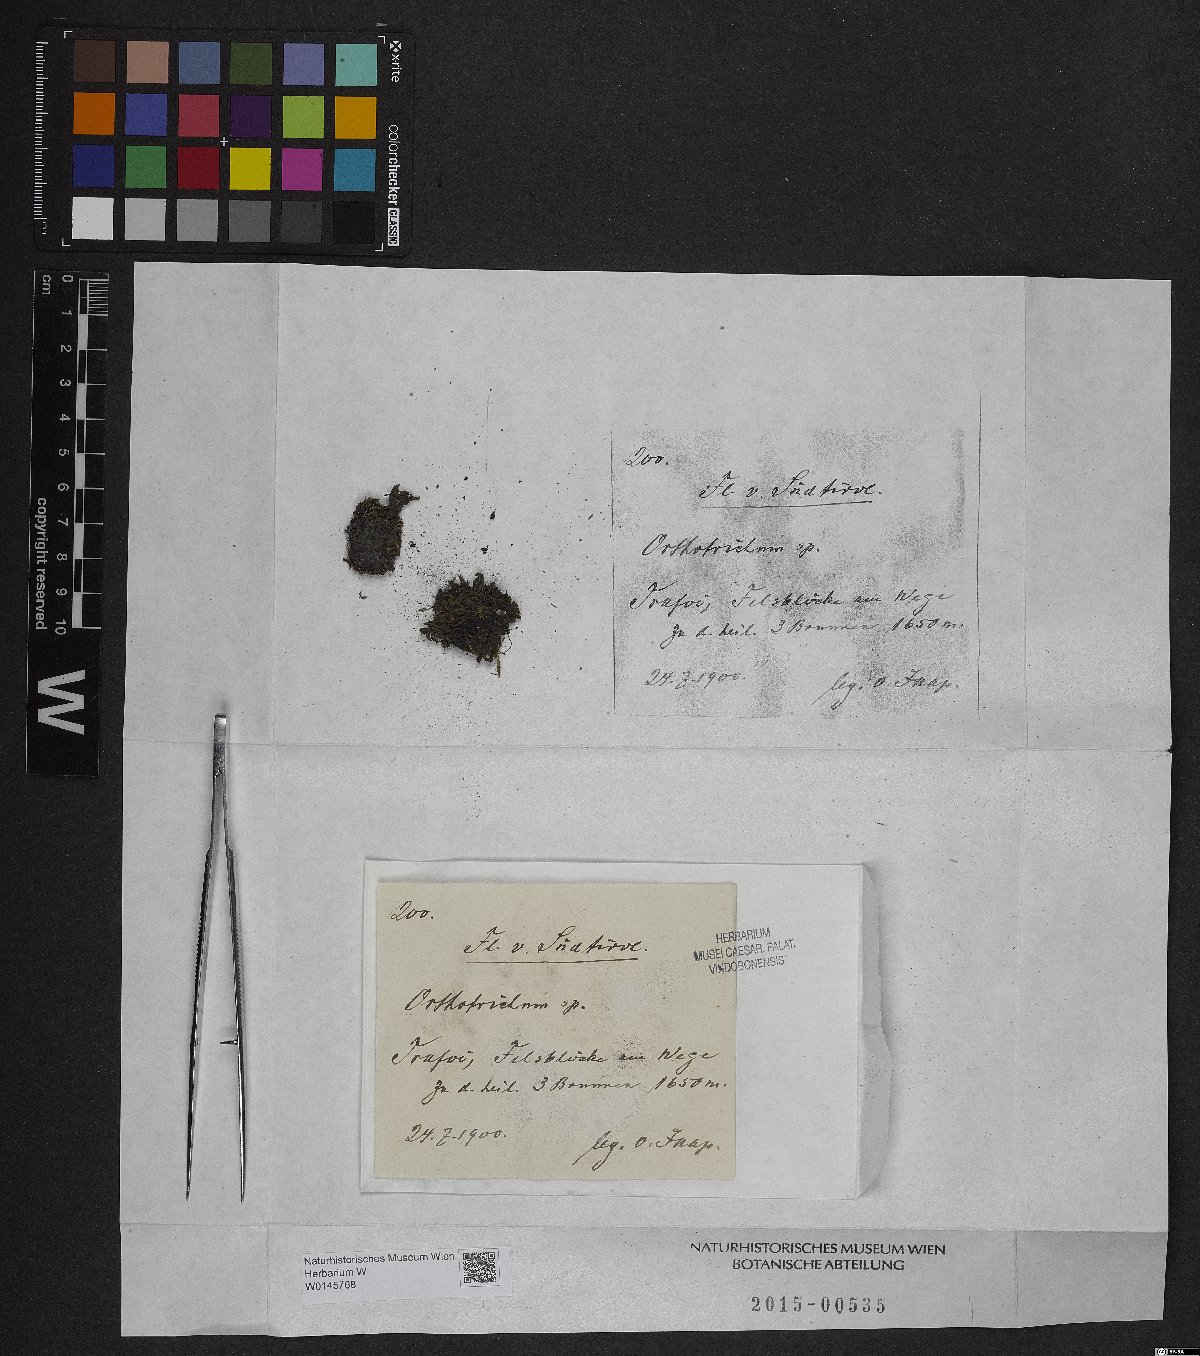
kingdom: Plantae
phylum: Bryophyta
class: Bryopsida
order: Orthotrichales
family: Orthotrichaceae
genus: Orthotrichum
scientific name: Orthotrichum
